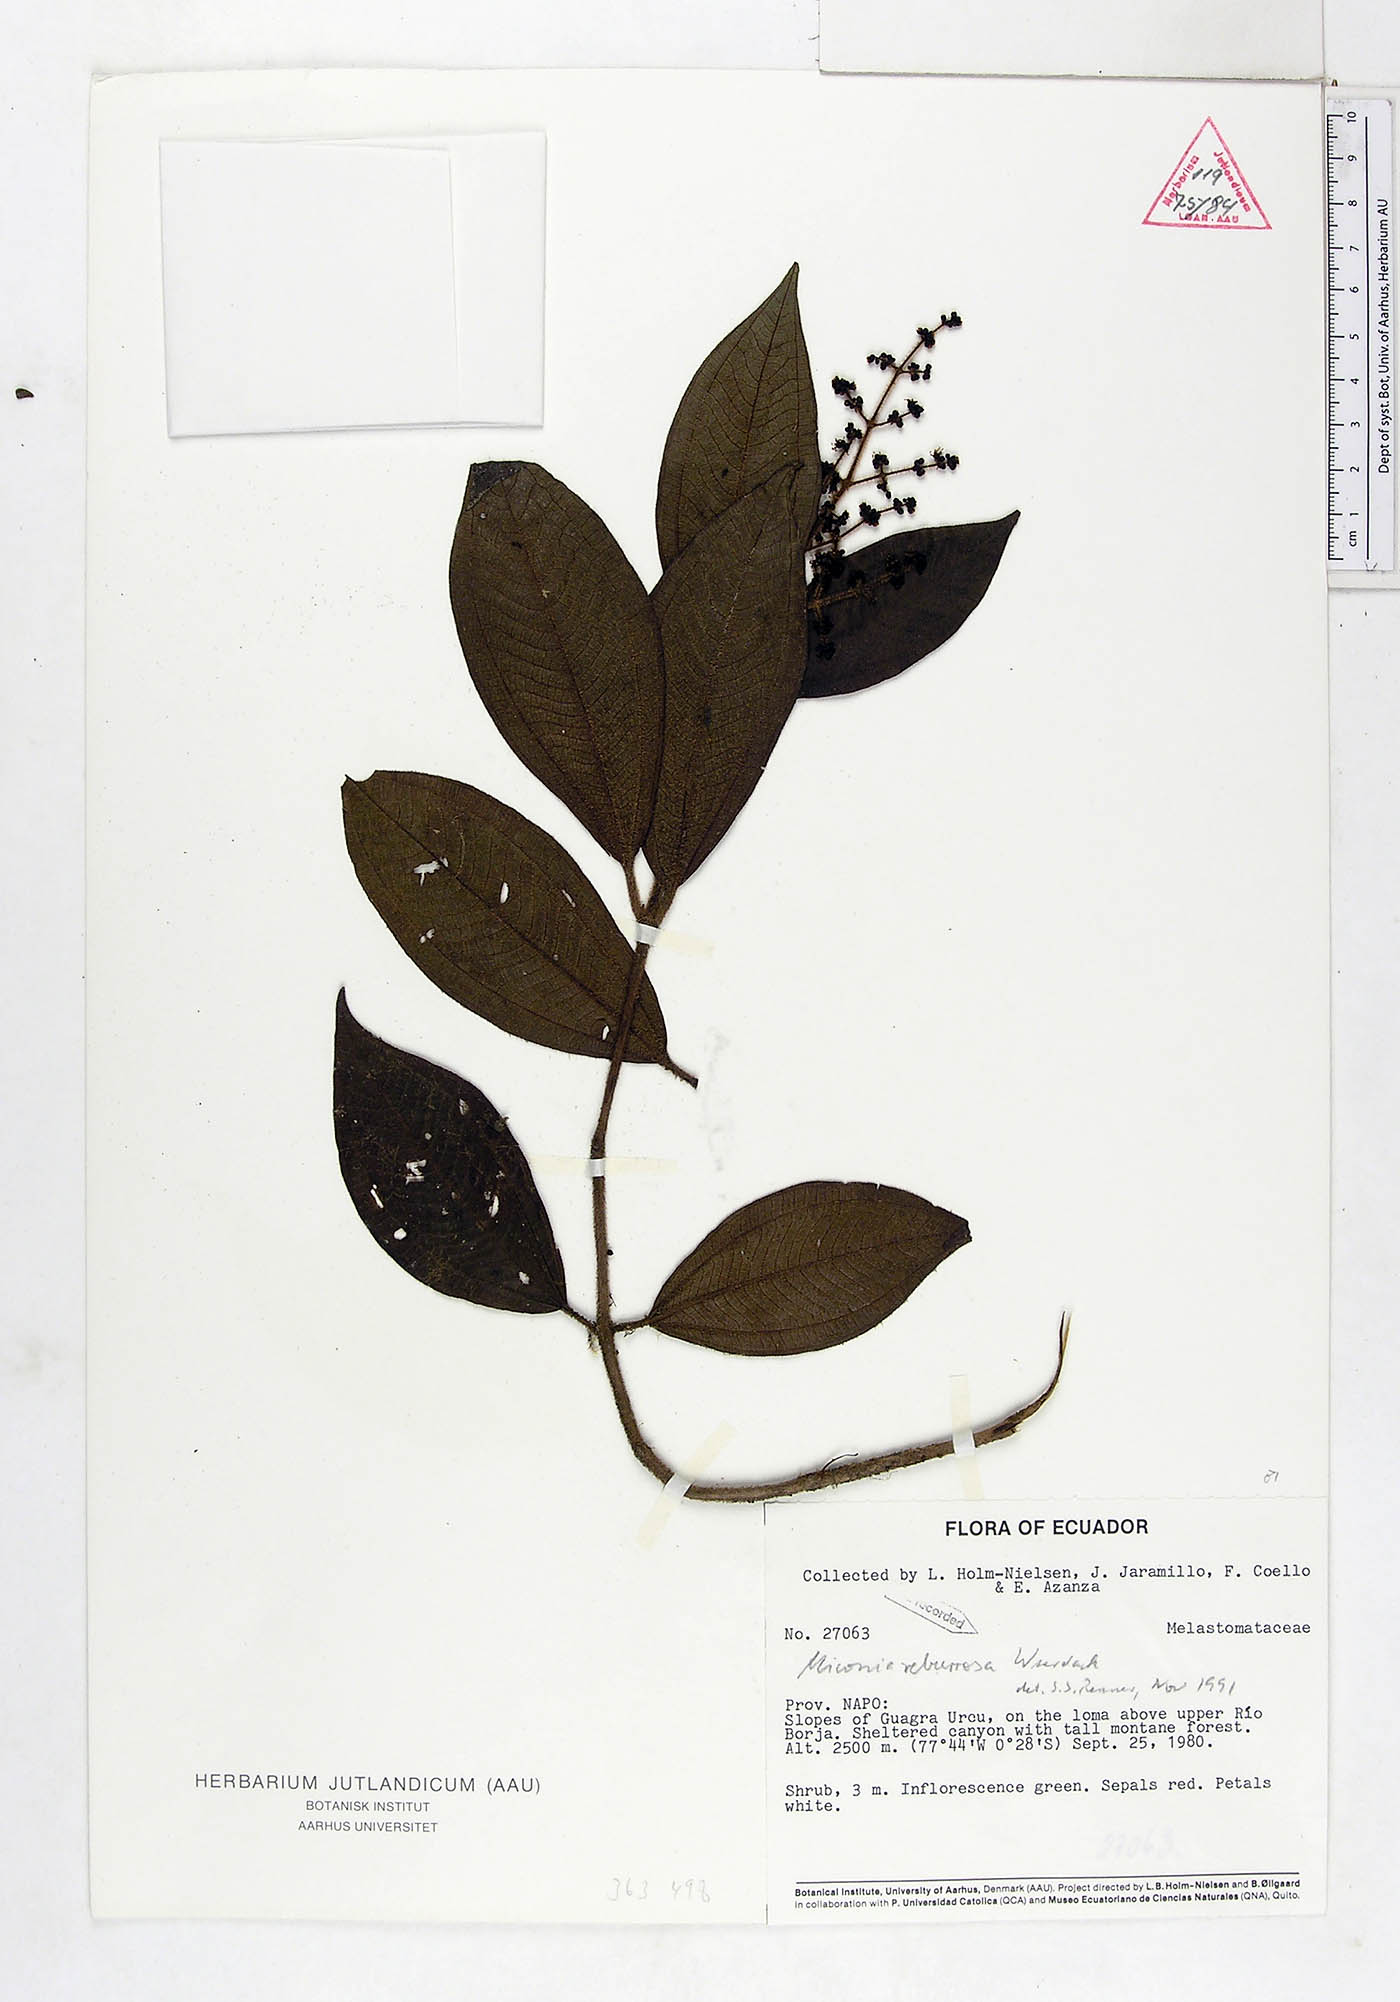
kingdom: Plantae
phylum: Tracheophyta
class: Magnoliopsida
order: Myrtales
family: Melastomataceae
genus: Miconia
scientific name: Miconia reburrosa
